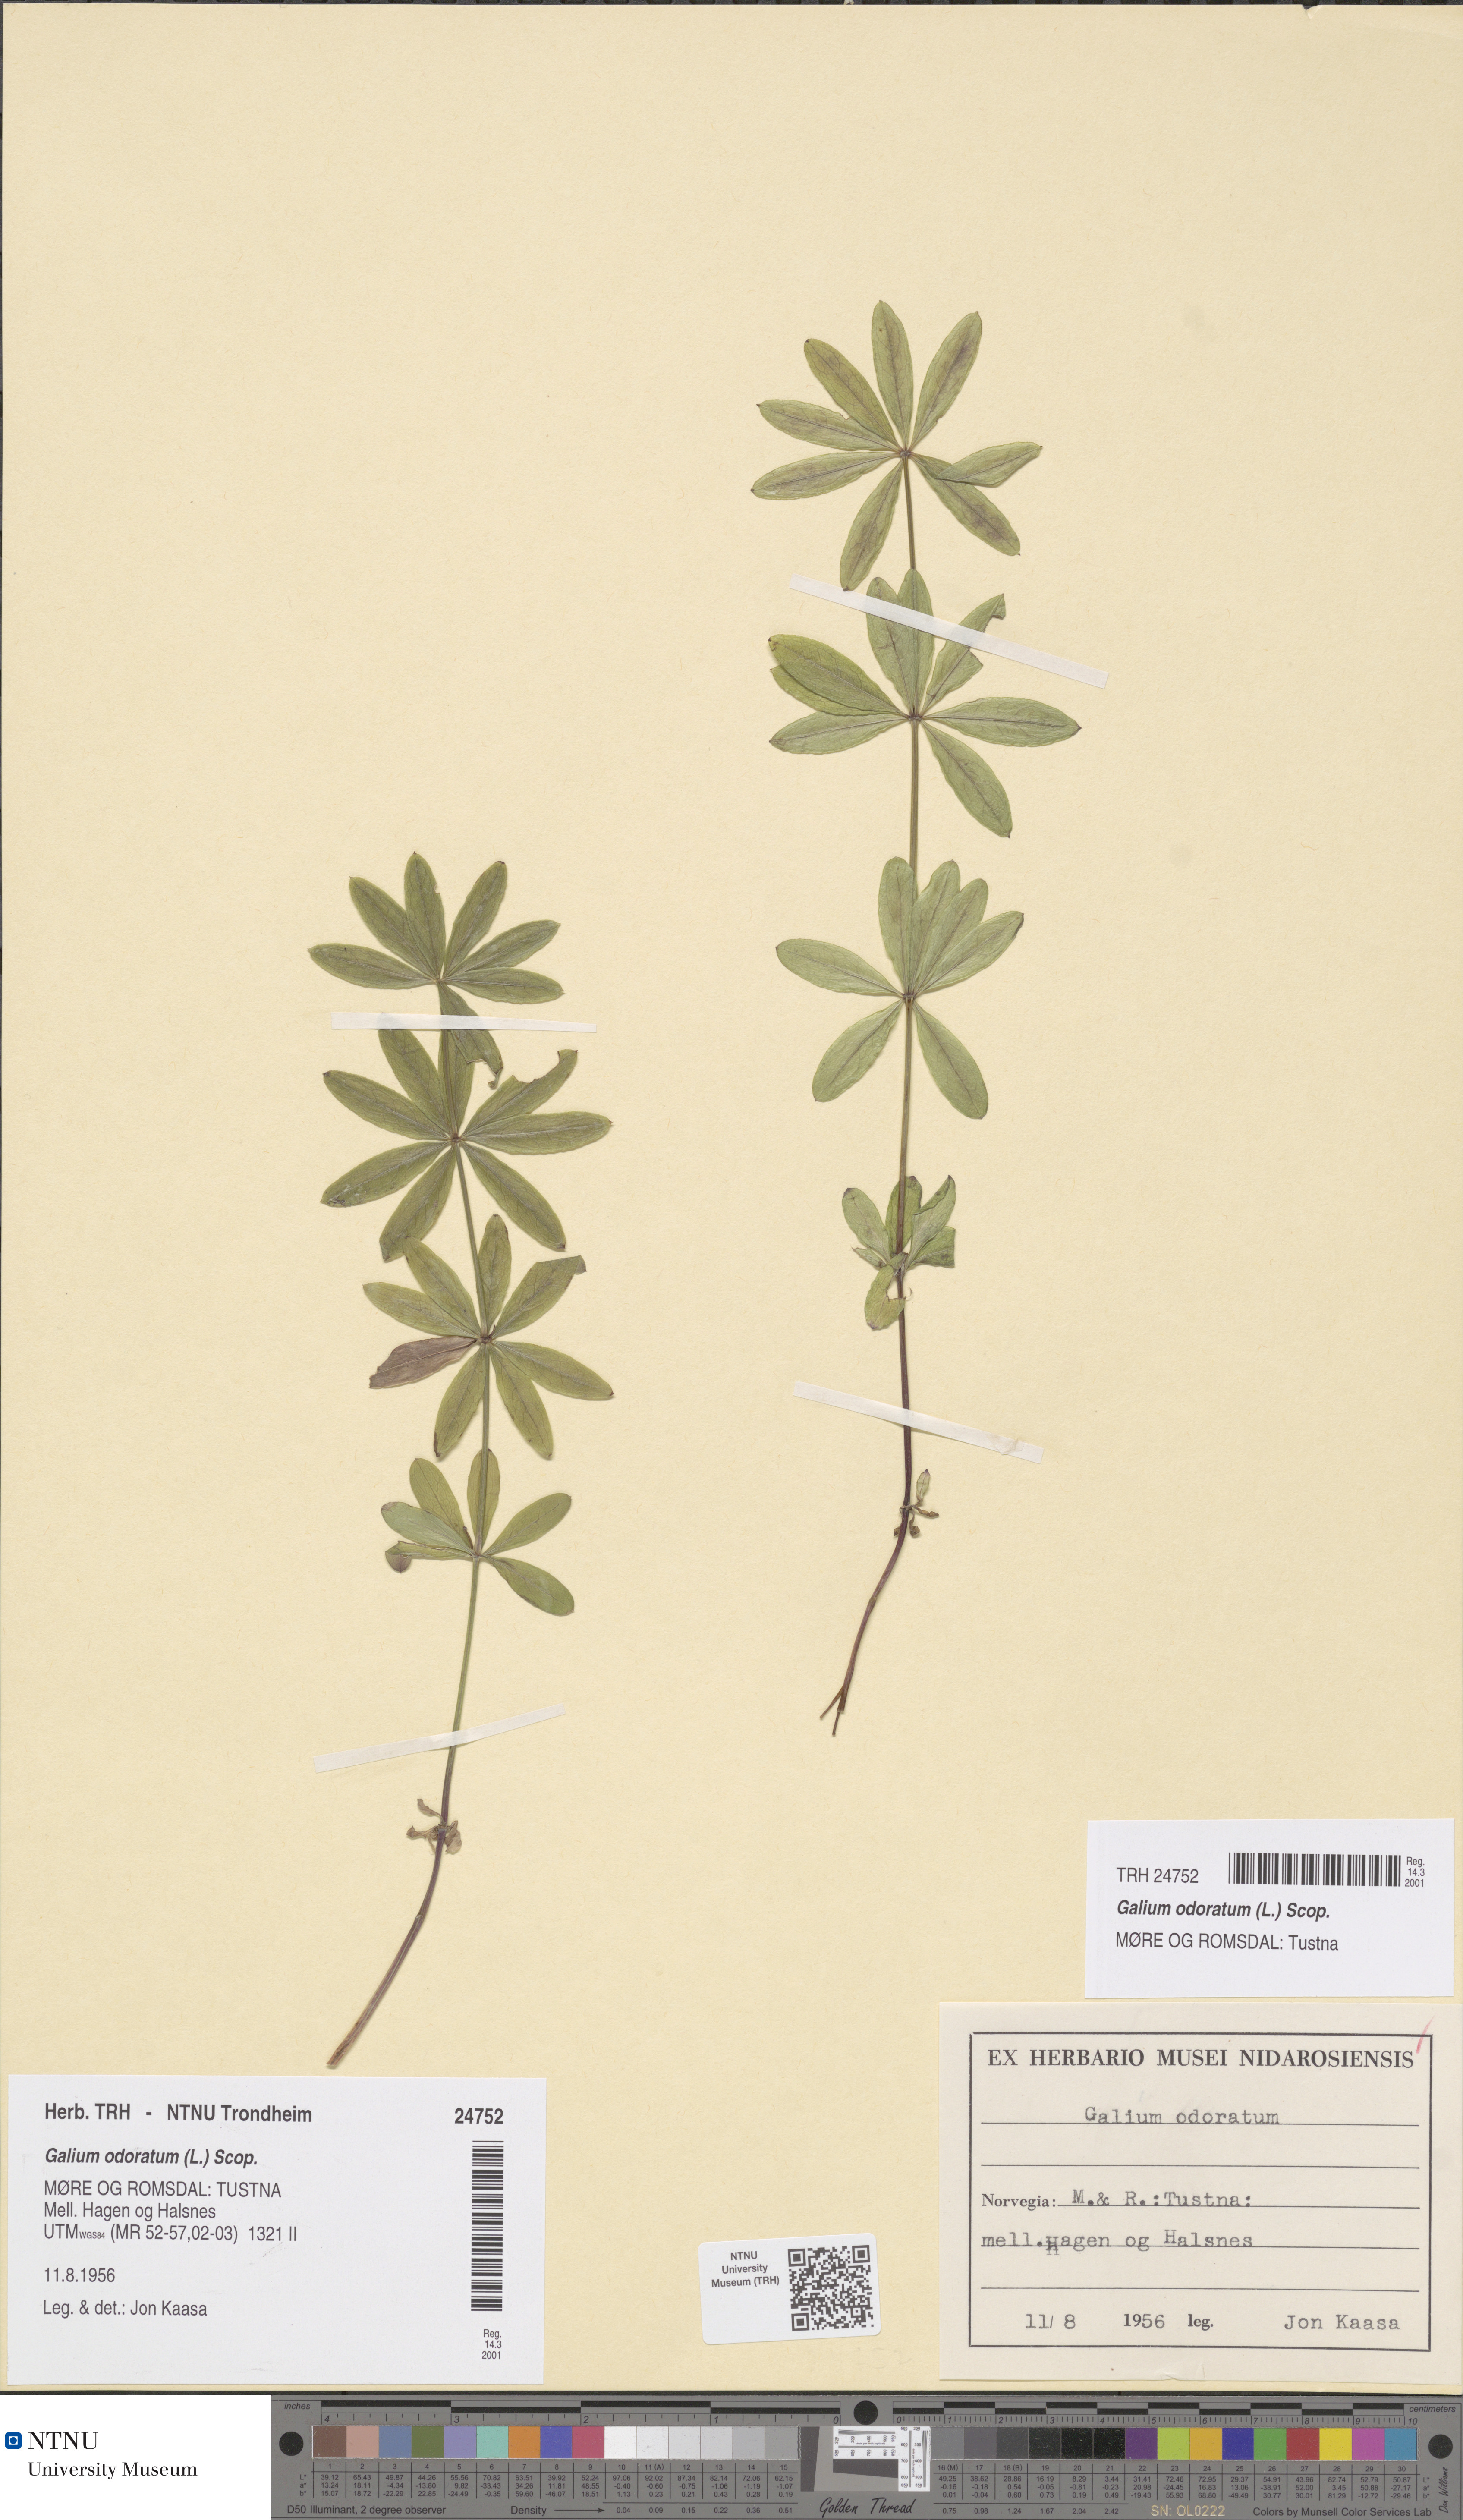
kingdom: Plantae
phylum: Tracheophyta
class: Magnoliopsida
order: Gentianales
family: Rubiaceae
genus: Galium
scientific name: Galium odoratum
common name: Sweet woodruff
